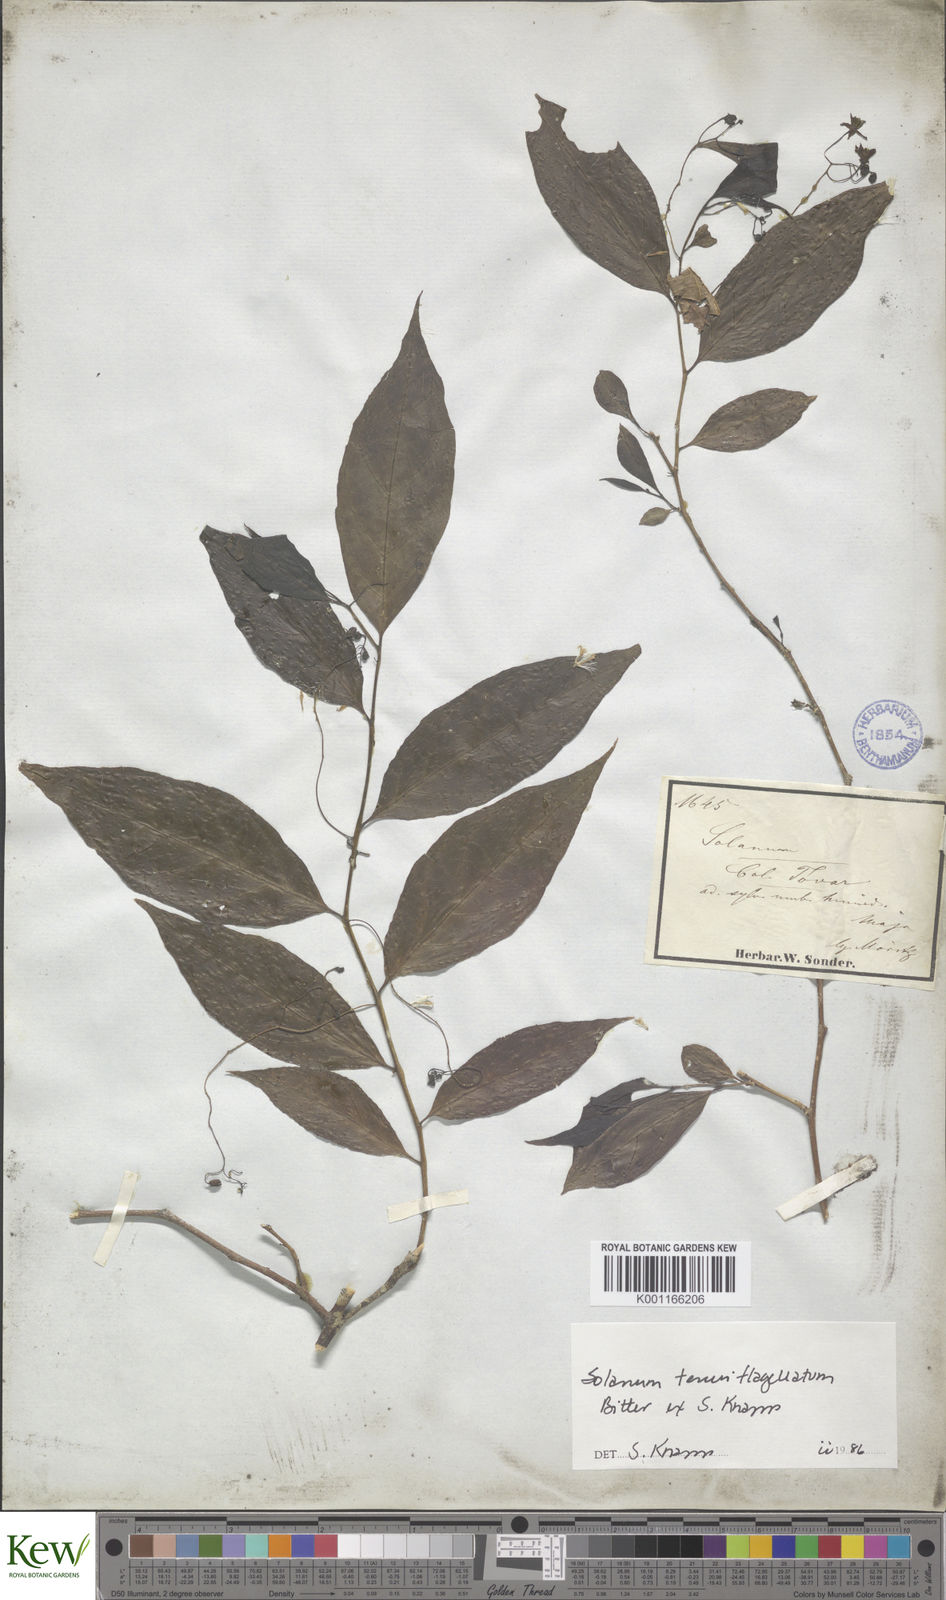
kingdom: Plantae
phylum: Tracheophyta
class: Magnoliopsida
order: Solanales
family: Solanaceae
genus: Solanum
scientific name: Solanum tenuiflagellatum
